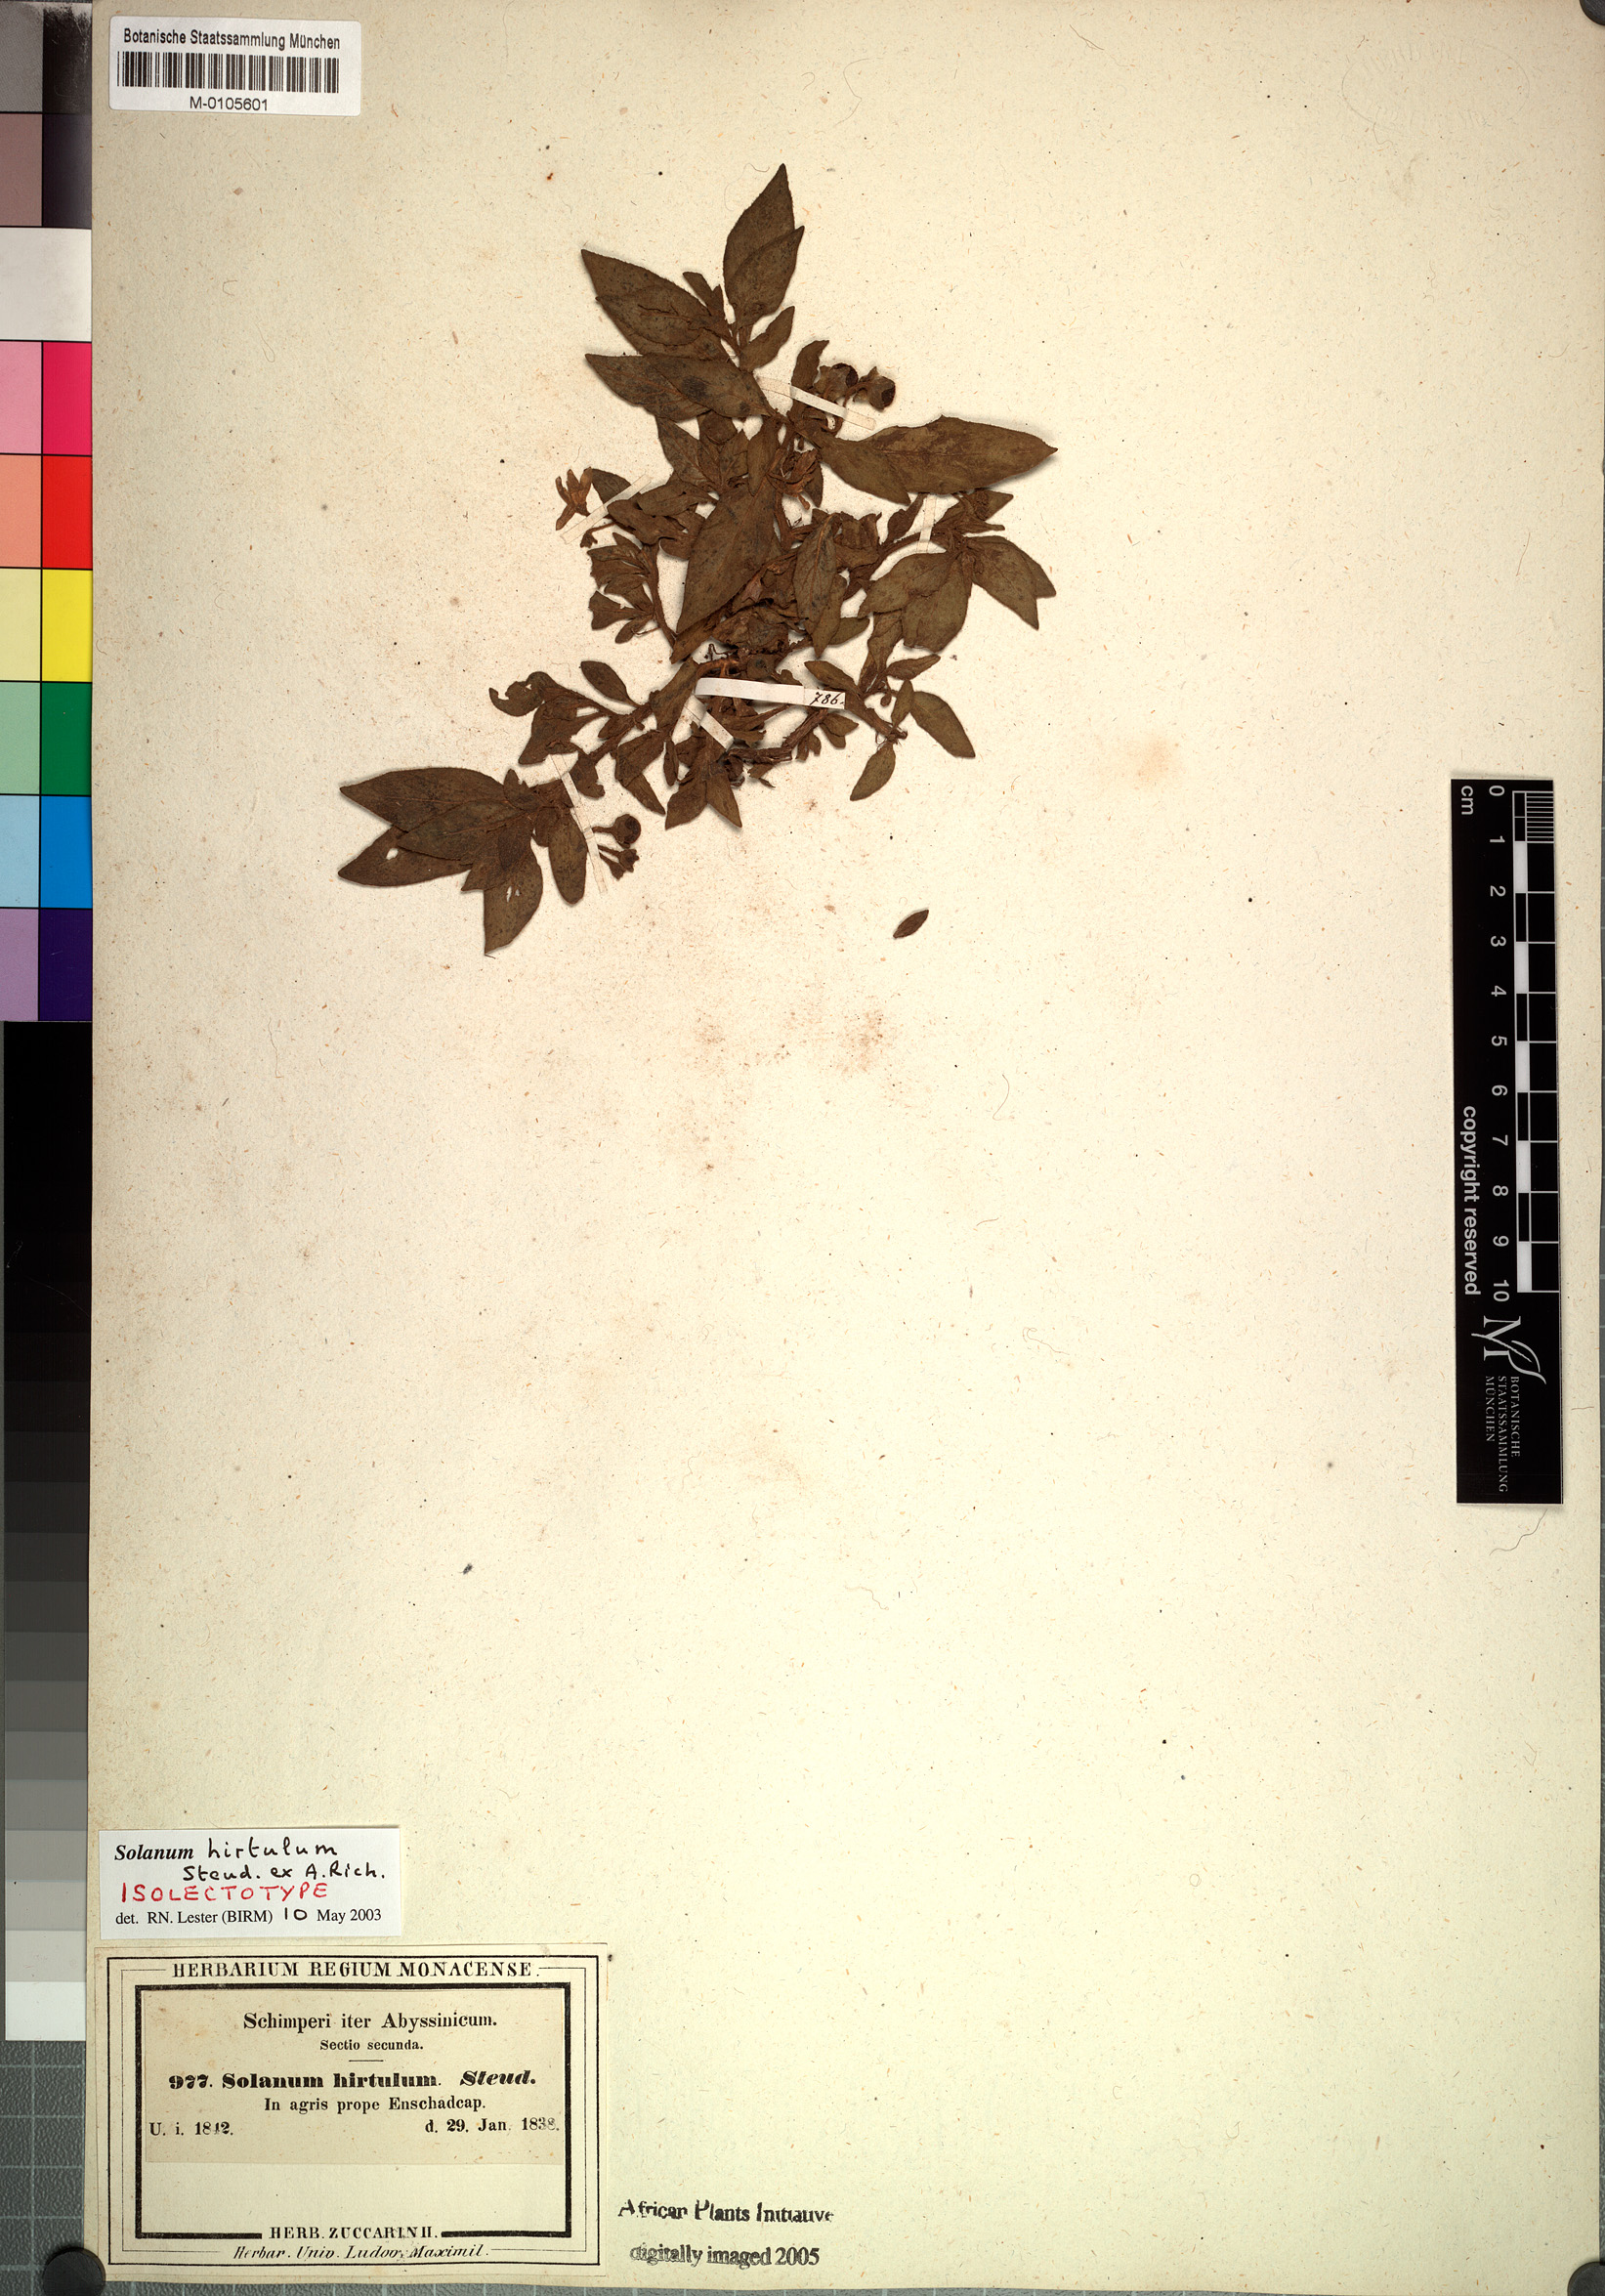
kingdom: Plantae
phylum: Tracheophyta
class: Magnoliopsida
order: Solanales
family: Solanaceae
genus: Solanum
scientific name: Solanum hirtulum
